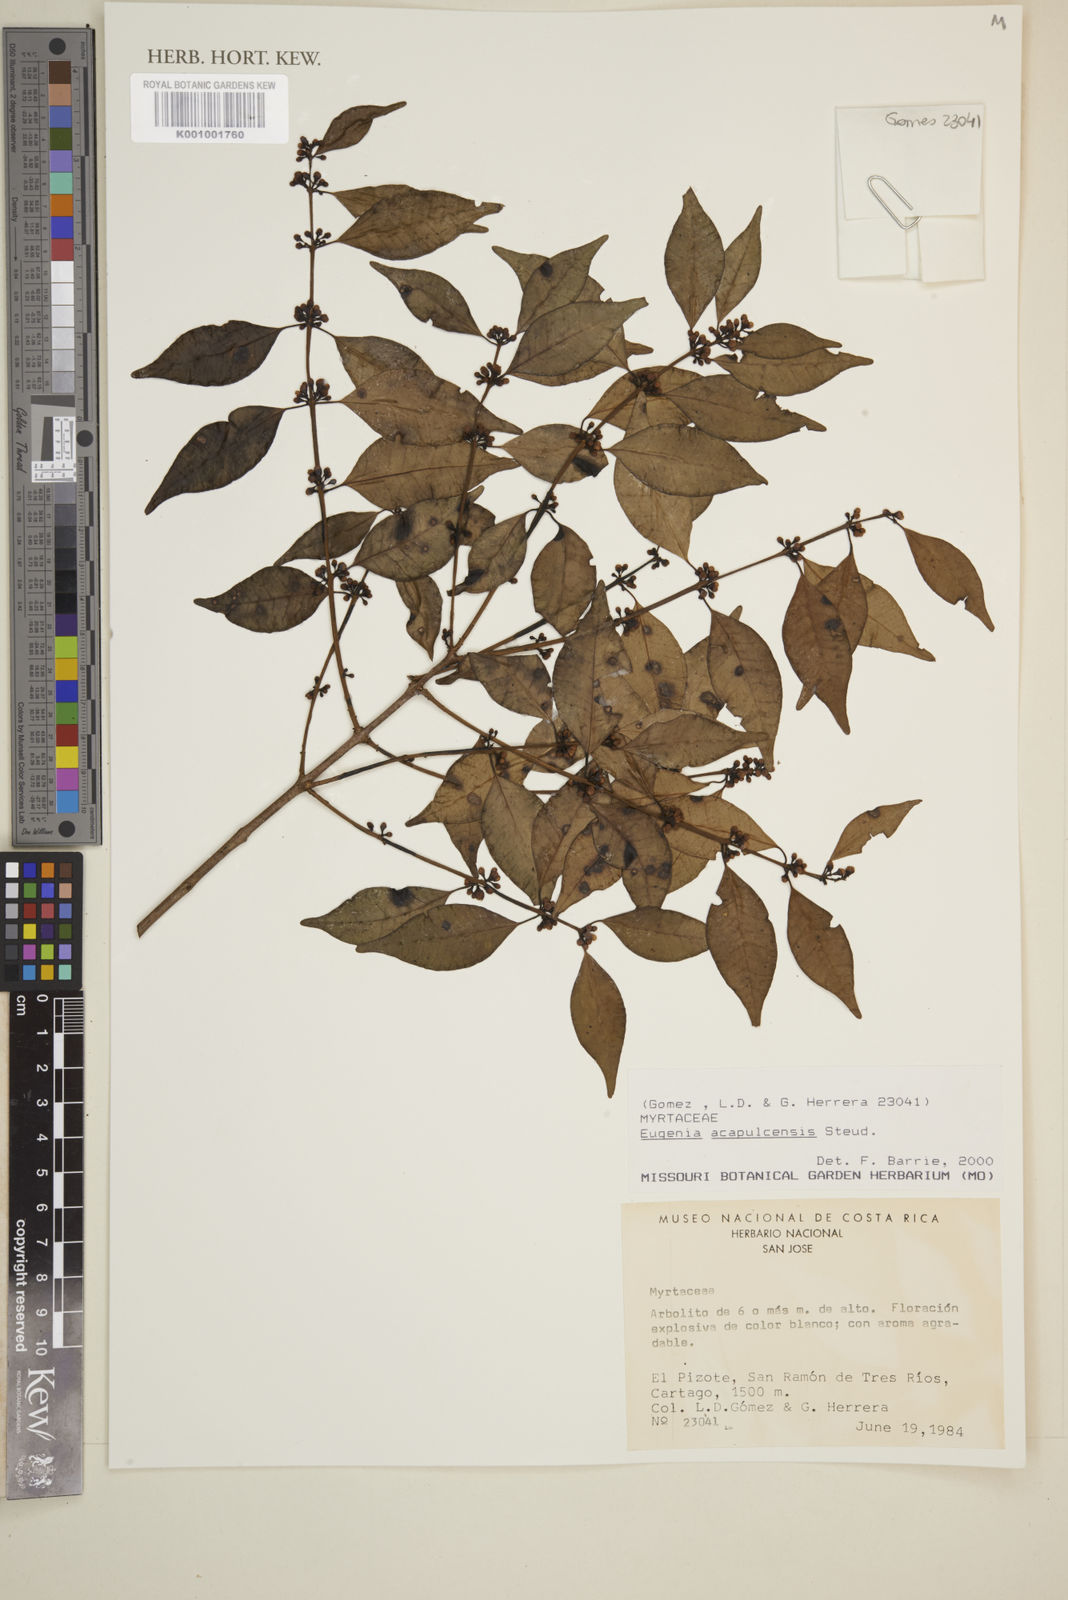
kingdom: Plantae
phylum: Tracheophyta
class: Magnoliopsida
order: Myrtales
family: Myrtaceae
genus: Eugenia
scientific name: Eugenia acapulcensis
